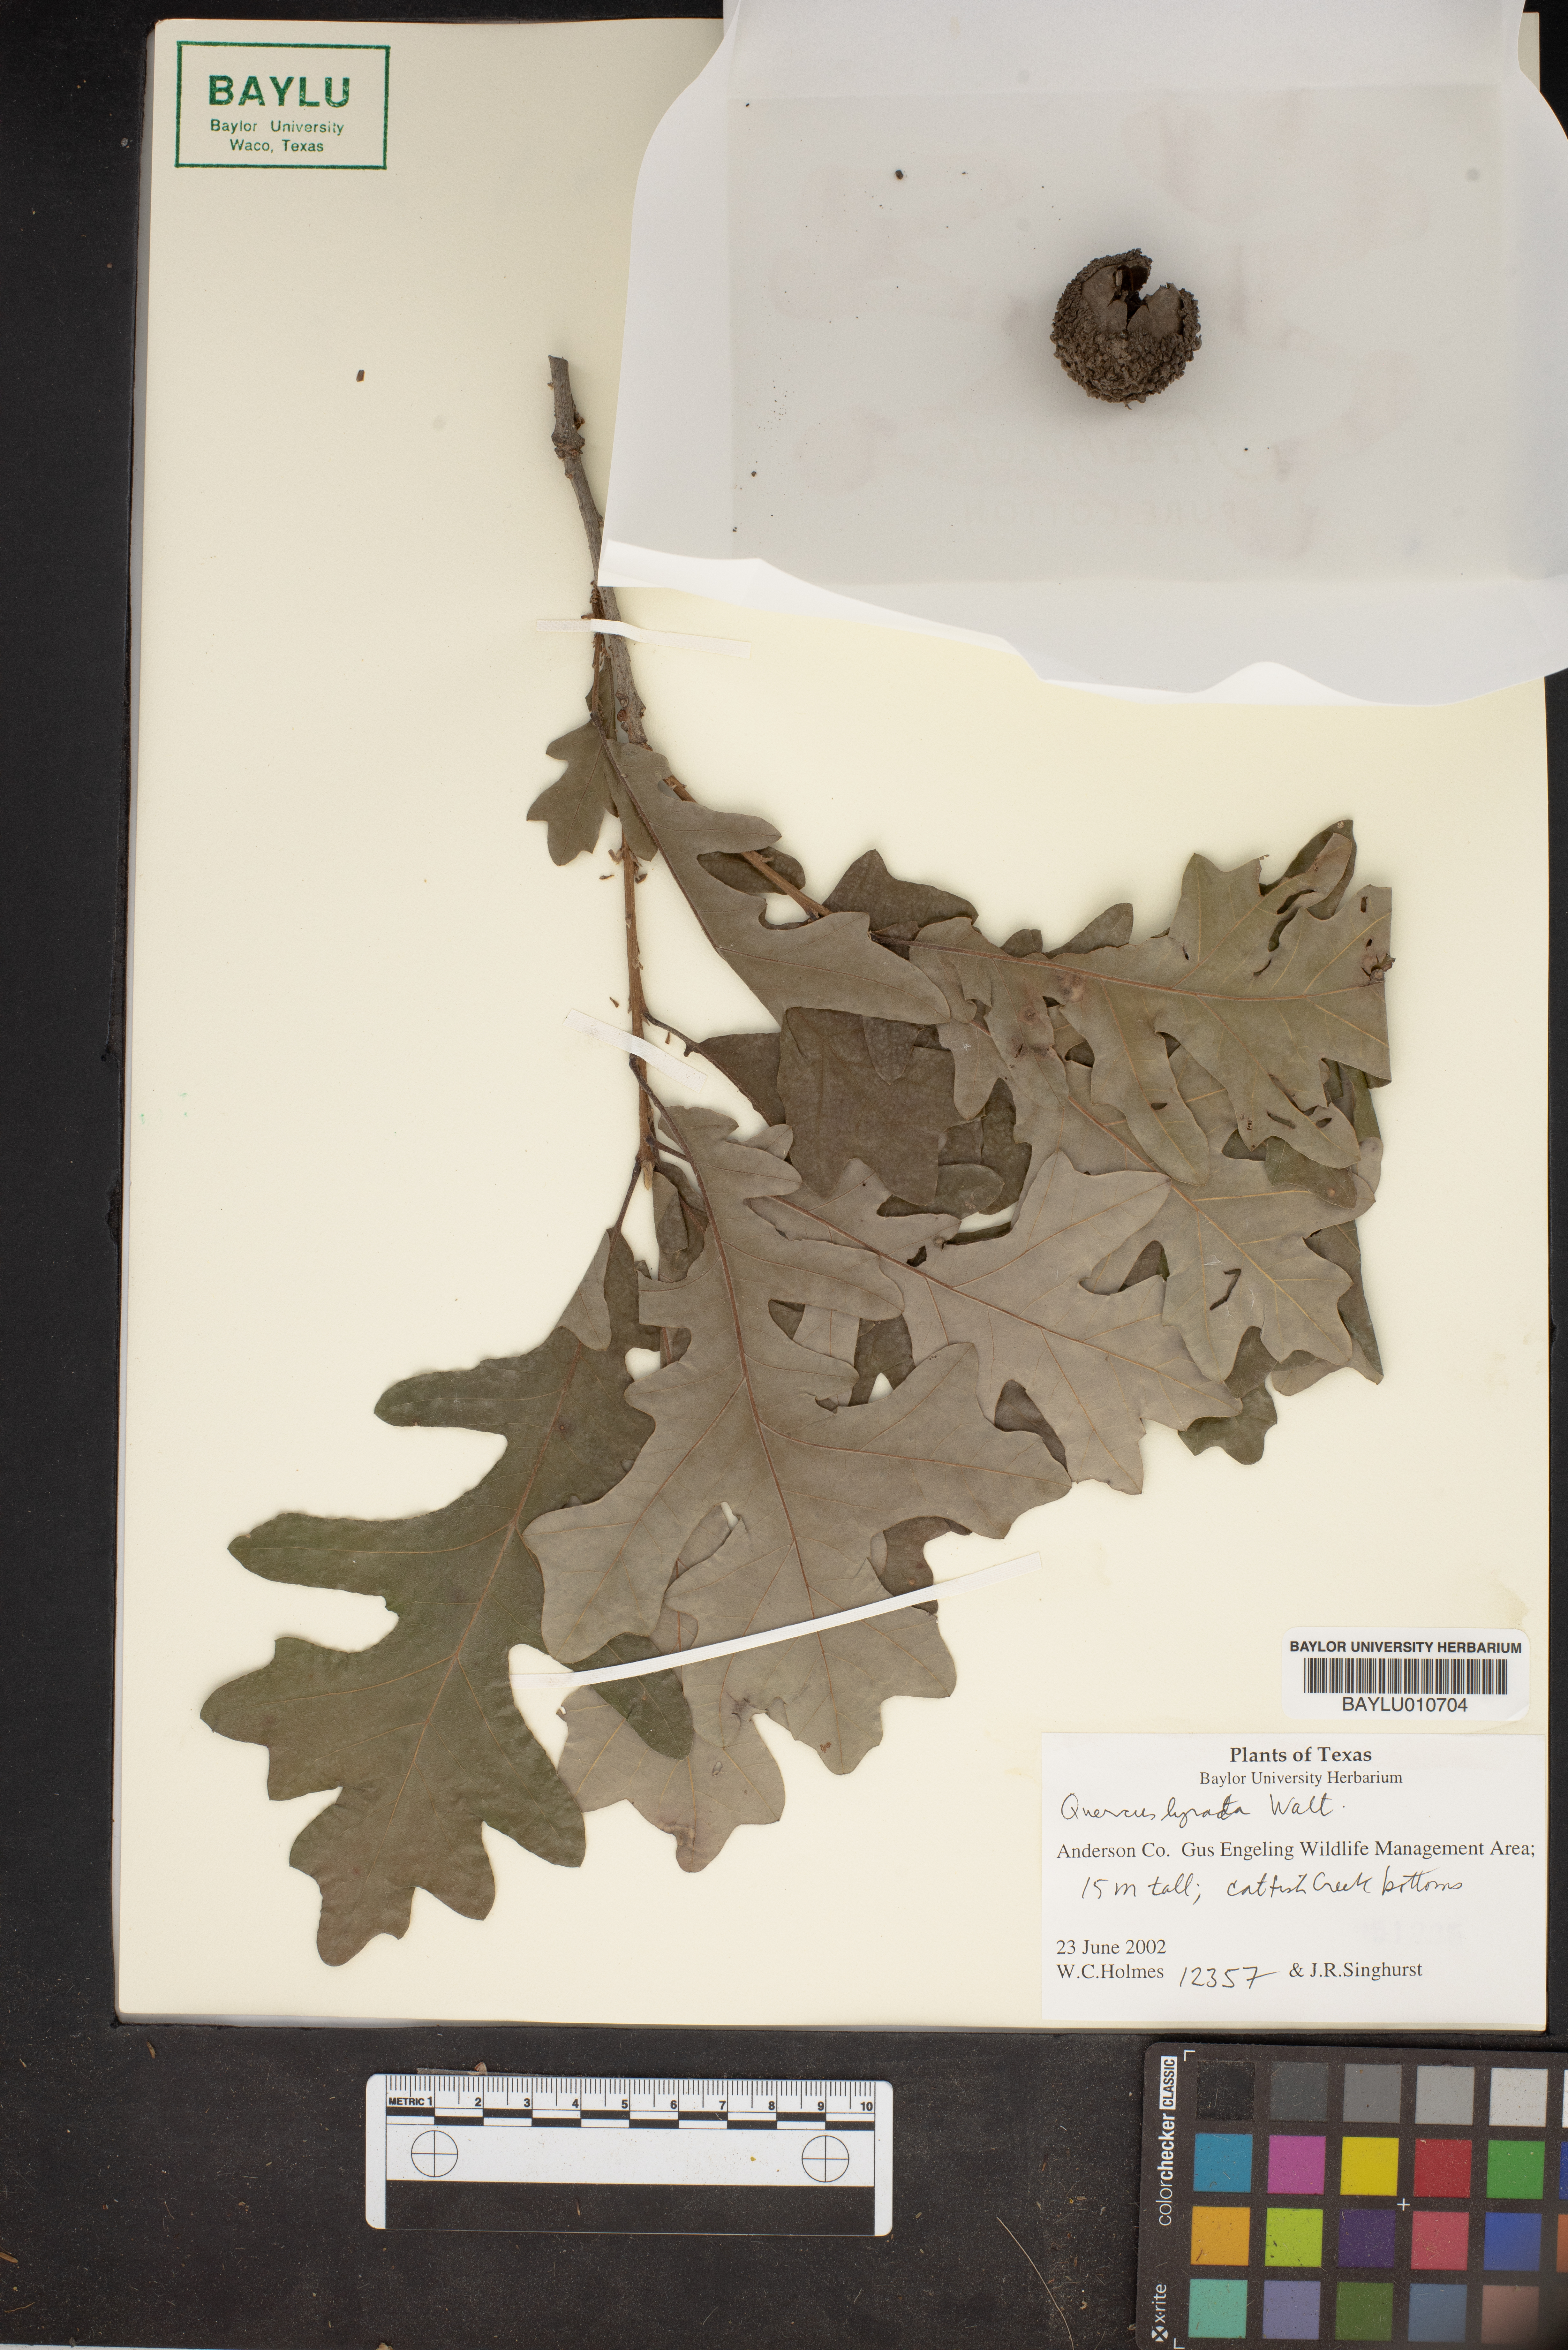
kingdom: Plantae
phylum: Tracheophyta
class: Magnoliopsida
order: Fagales
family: Fagaceae
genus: Quercus
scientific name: Quercus lyrata
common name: Overcup oak
